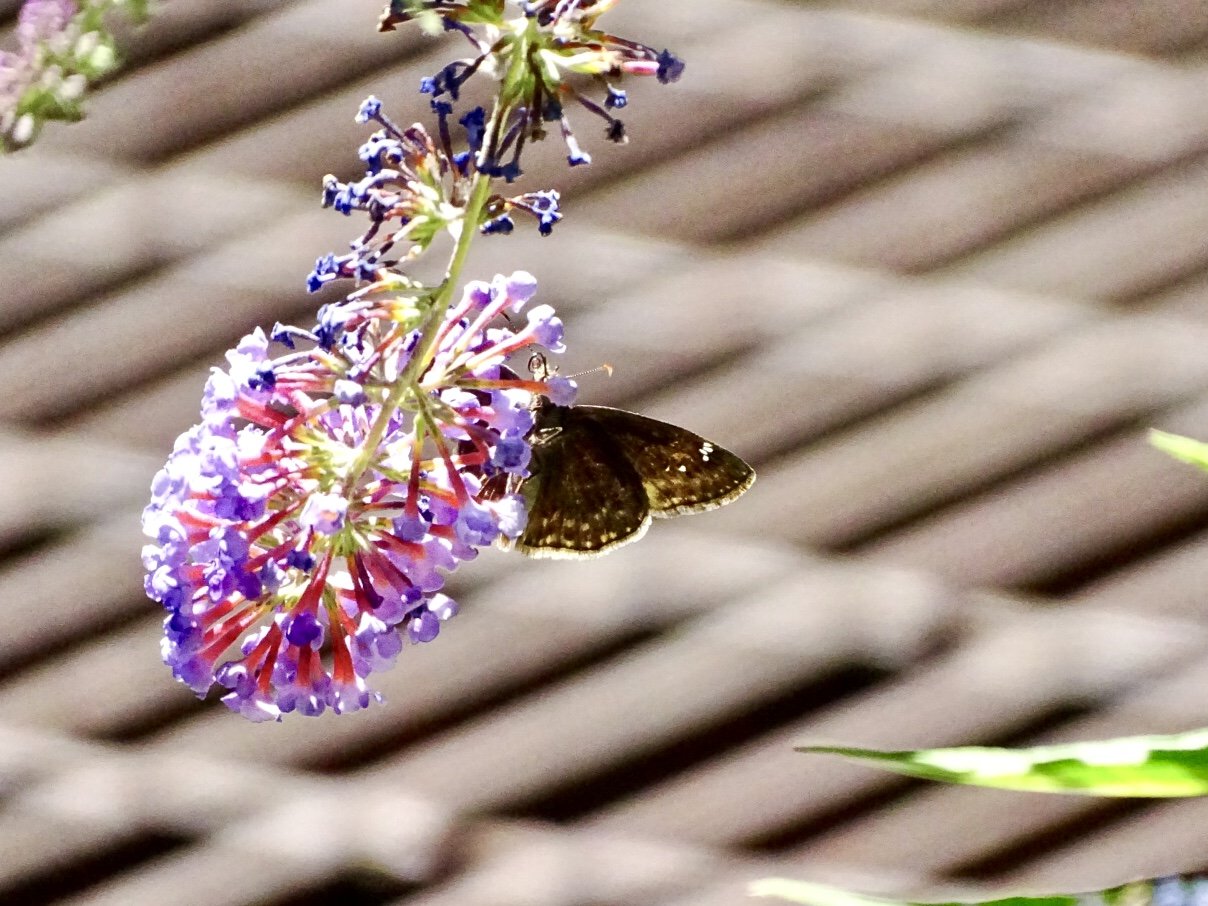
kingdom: Animalia
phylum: Arthropoda
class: Insecta
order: Lepidoptera
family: Hesperiidae
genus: Gesta
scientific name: Gesta
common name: Wild Indigo Duskywing
